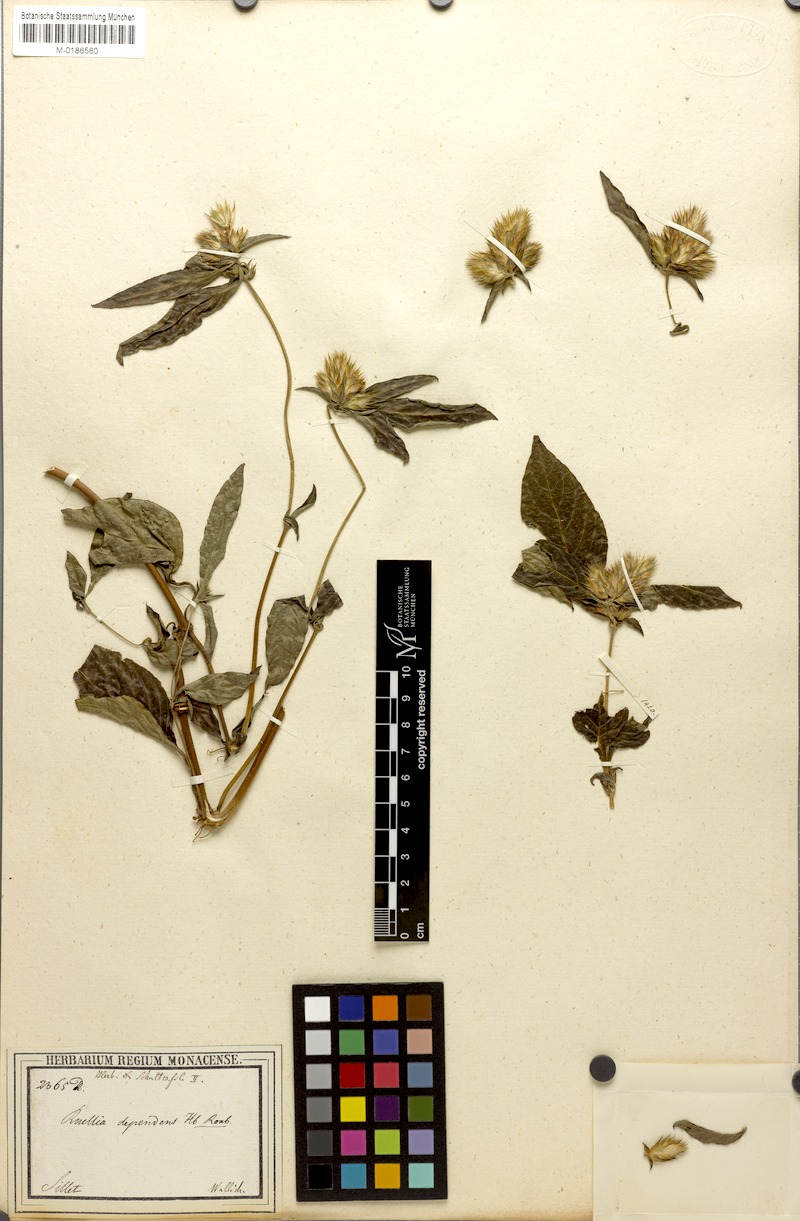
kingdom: Plantae
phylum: Tracheophyta
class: Magnoliopsida
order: Lamiales
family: Acanthaceae
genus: Lepidagathis
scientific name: Lepidagathis incurva
